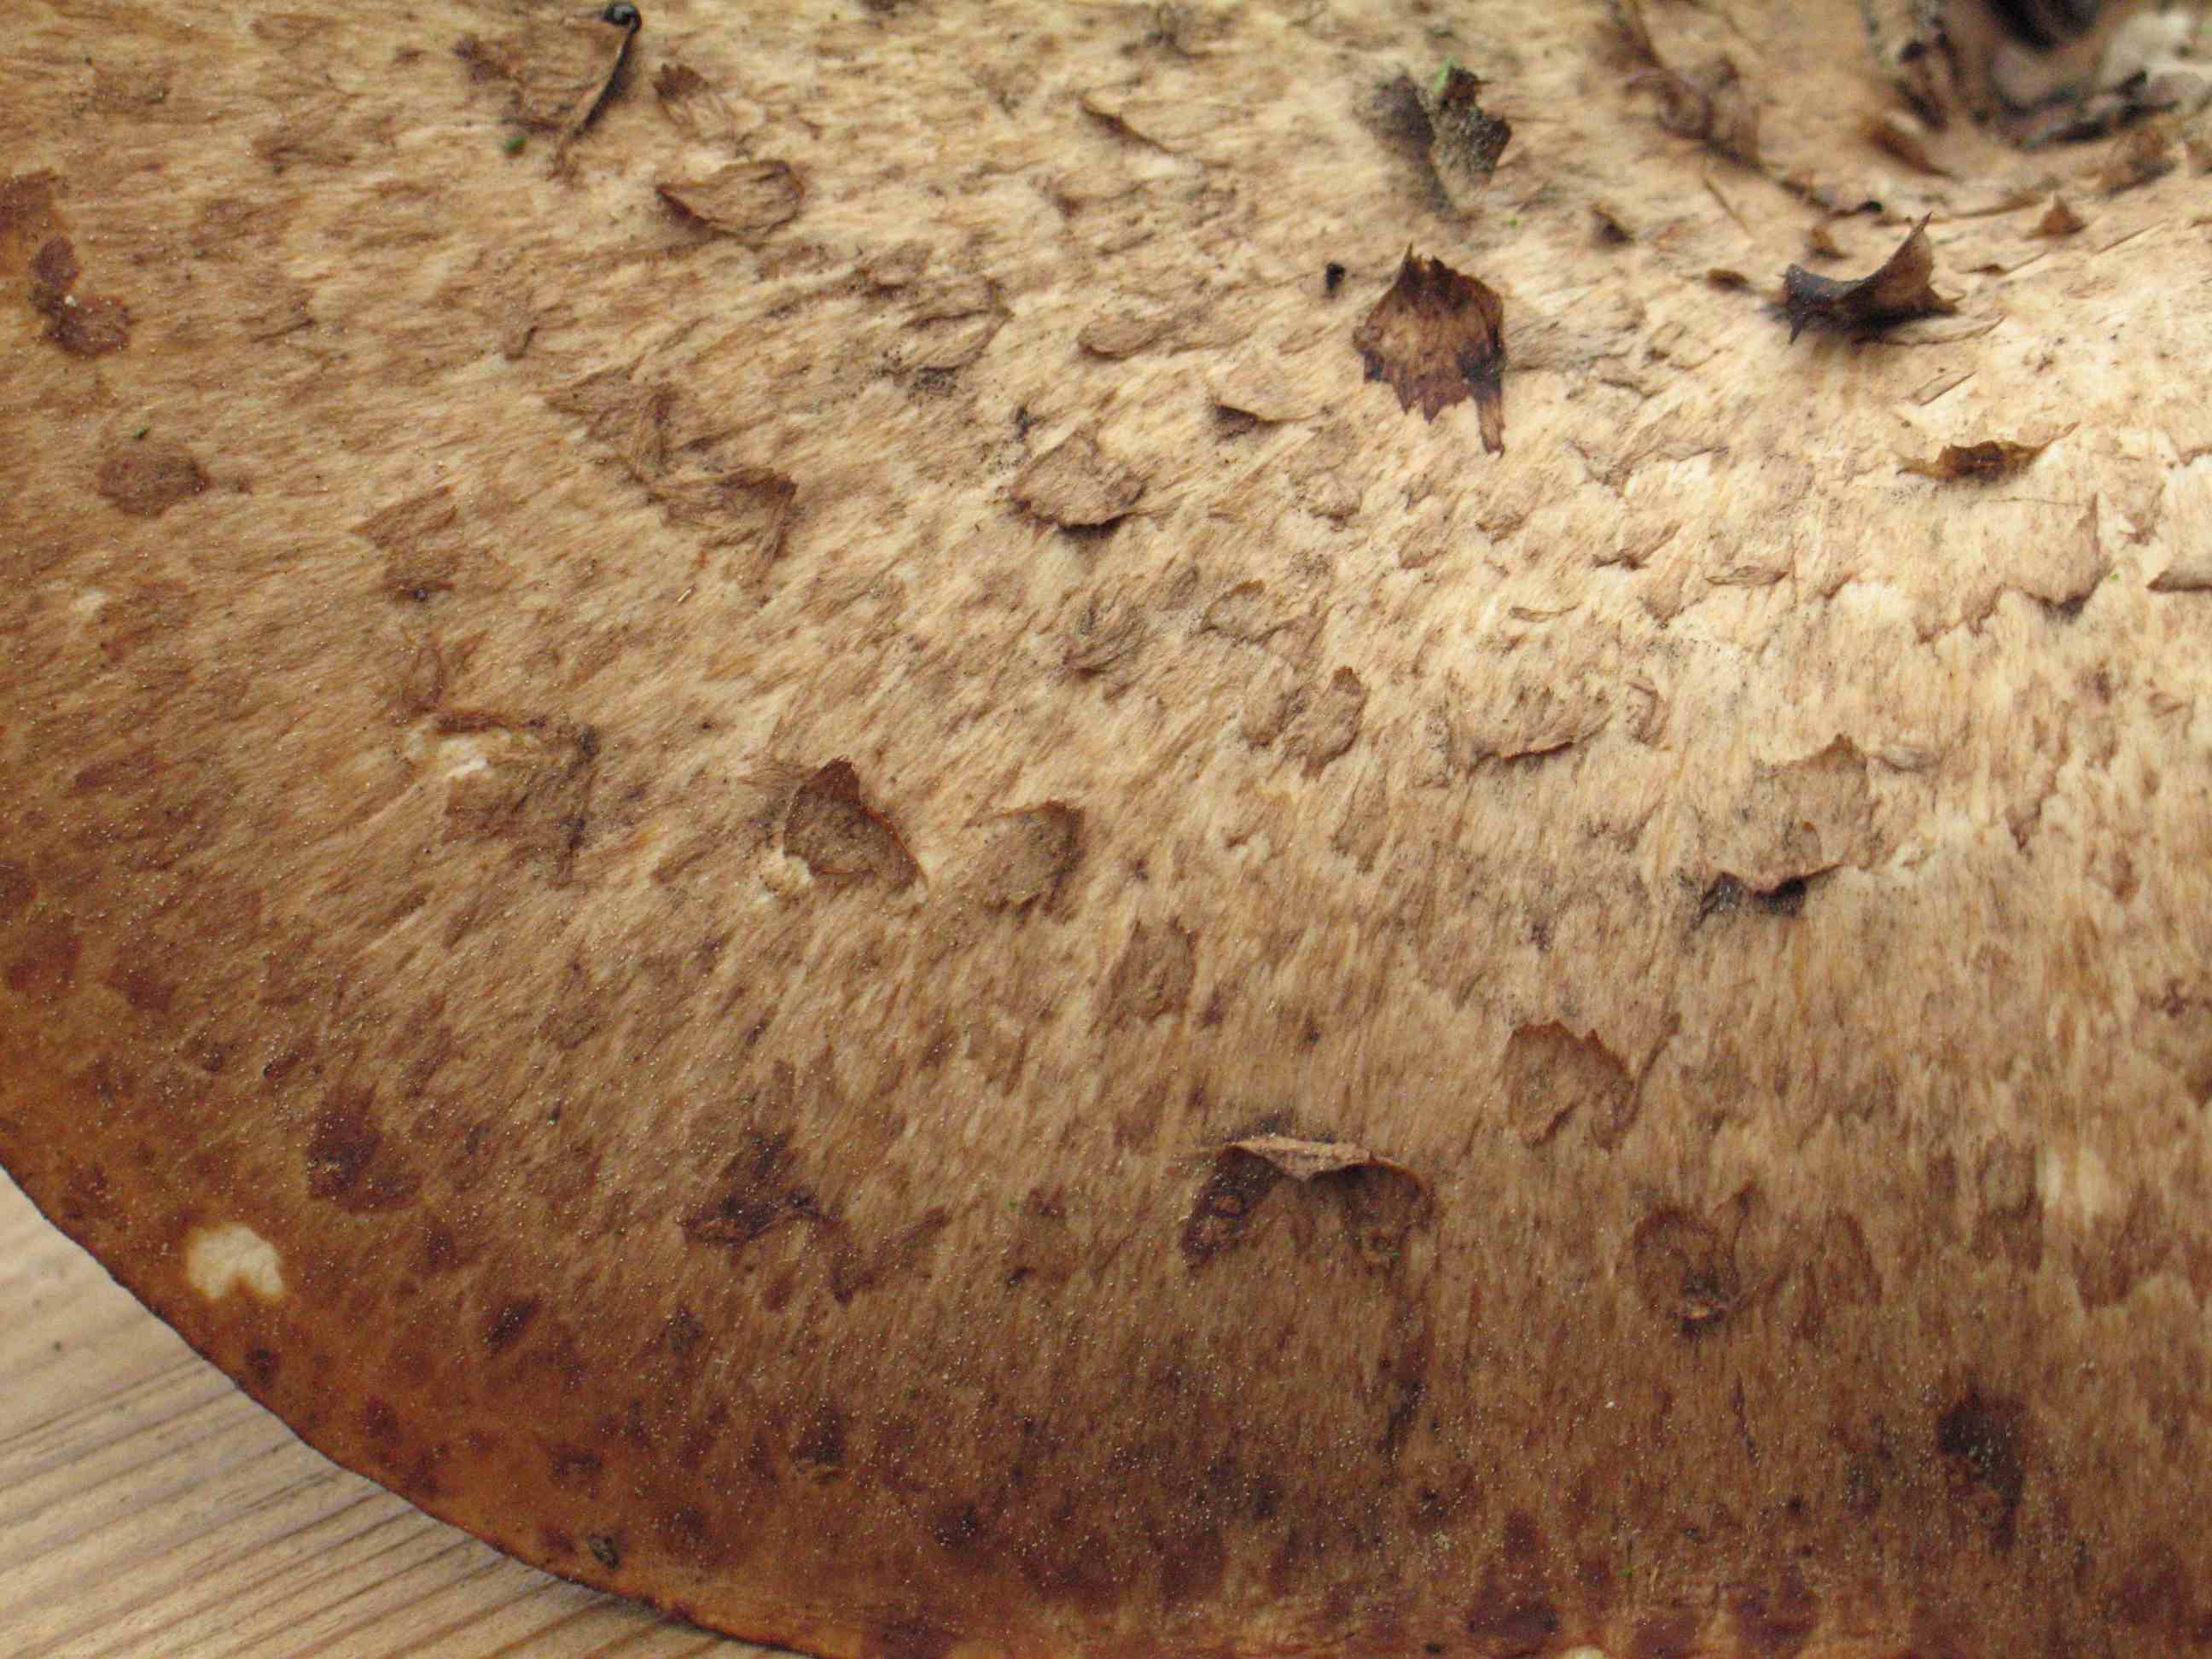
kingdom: Fungi
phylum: Basidiomycota
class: Agaricomycetes
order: Polyporales
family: Polyporaceae
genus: Cerioporus
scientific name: Cerioporus squamosus
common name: skællet stilkporesvamp
